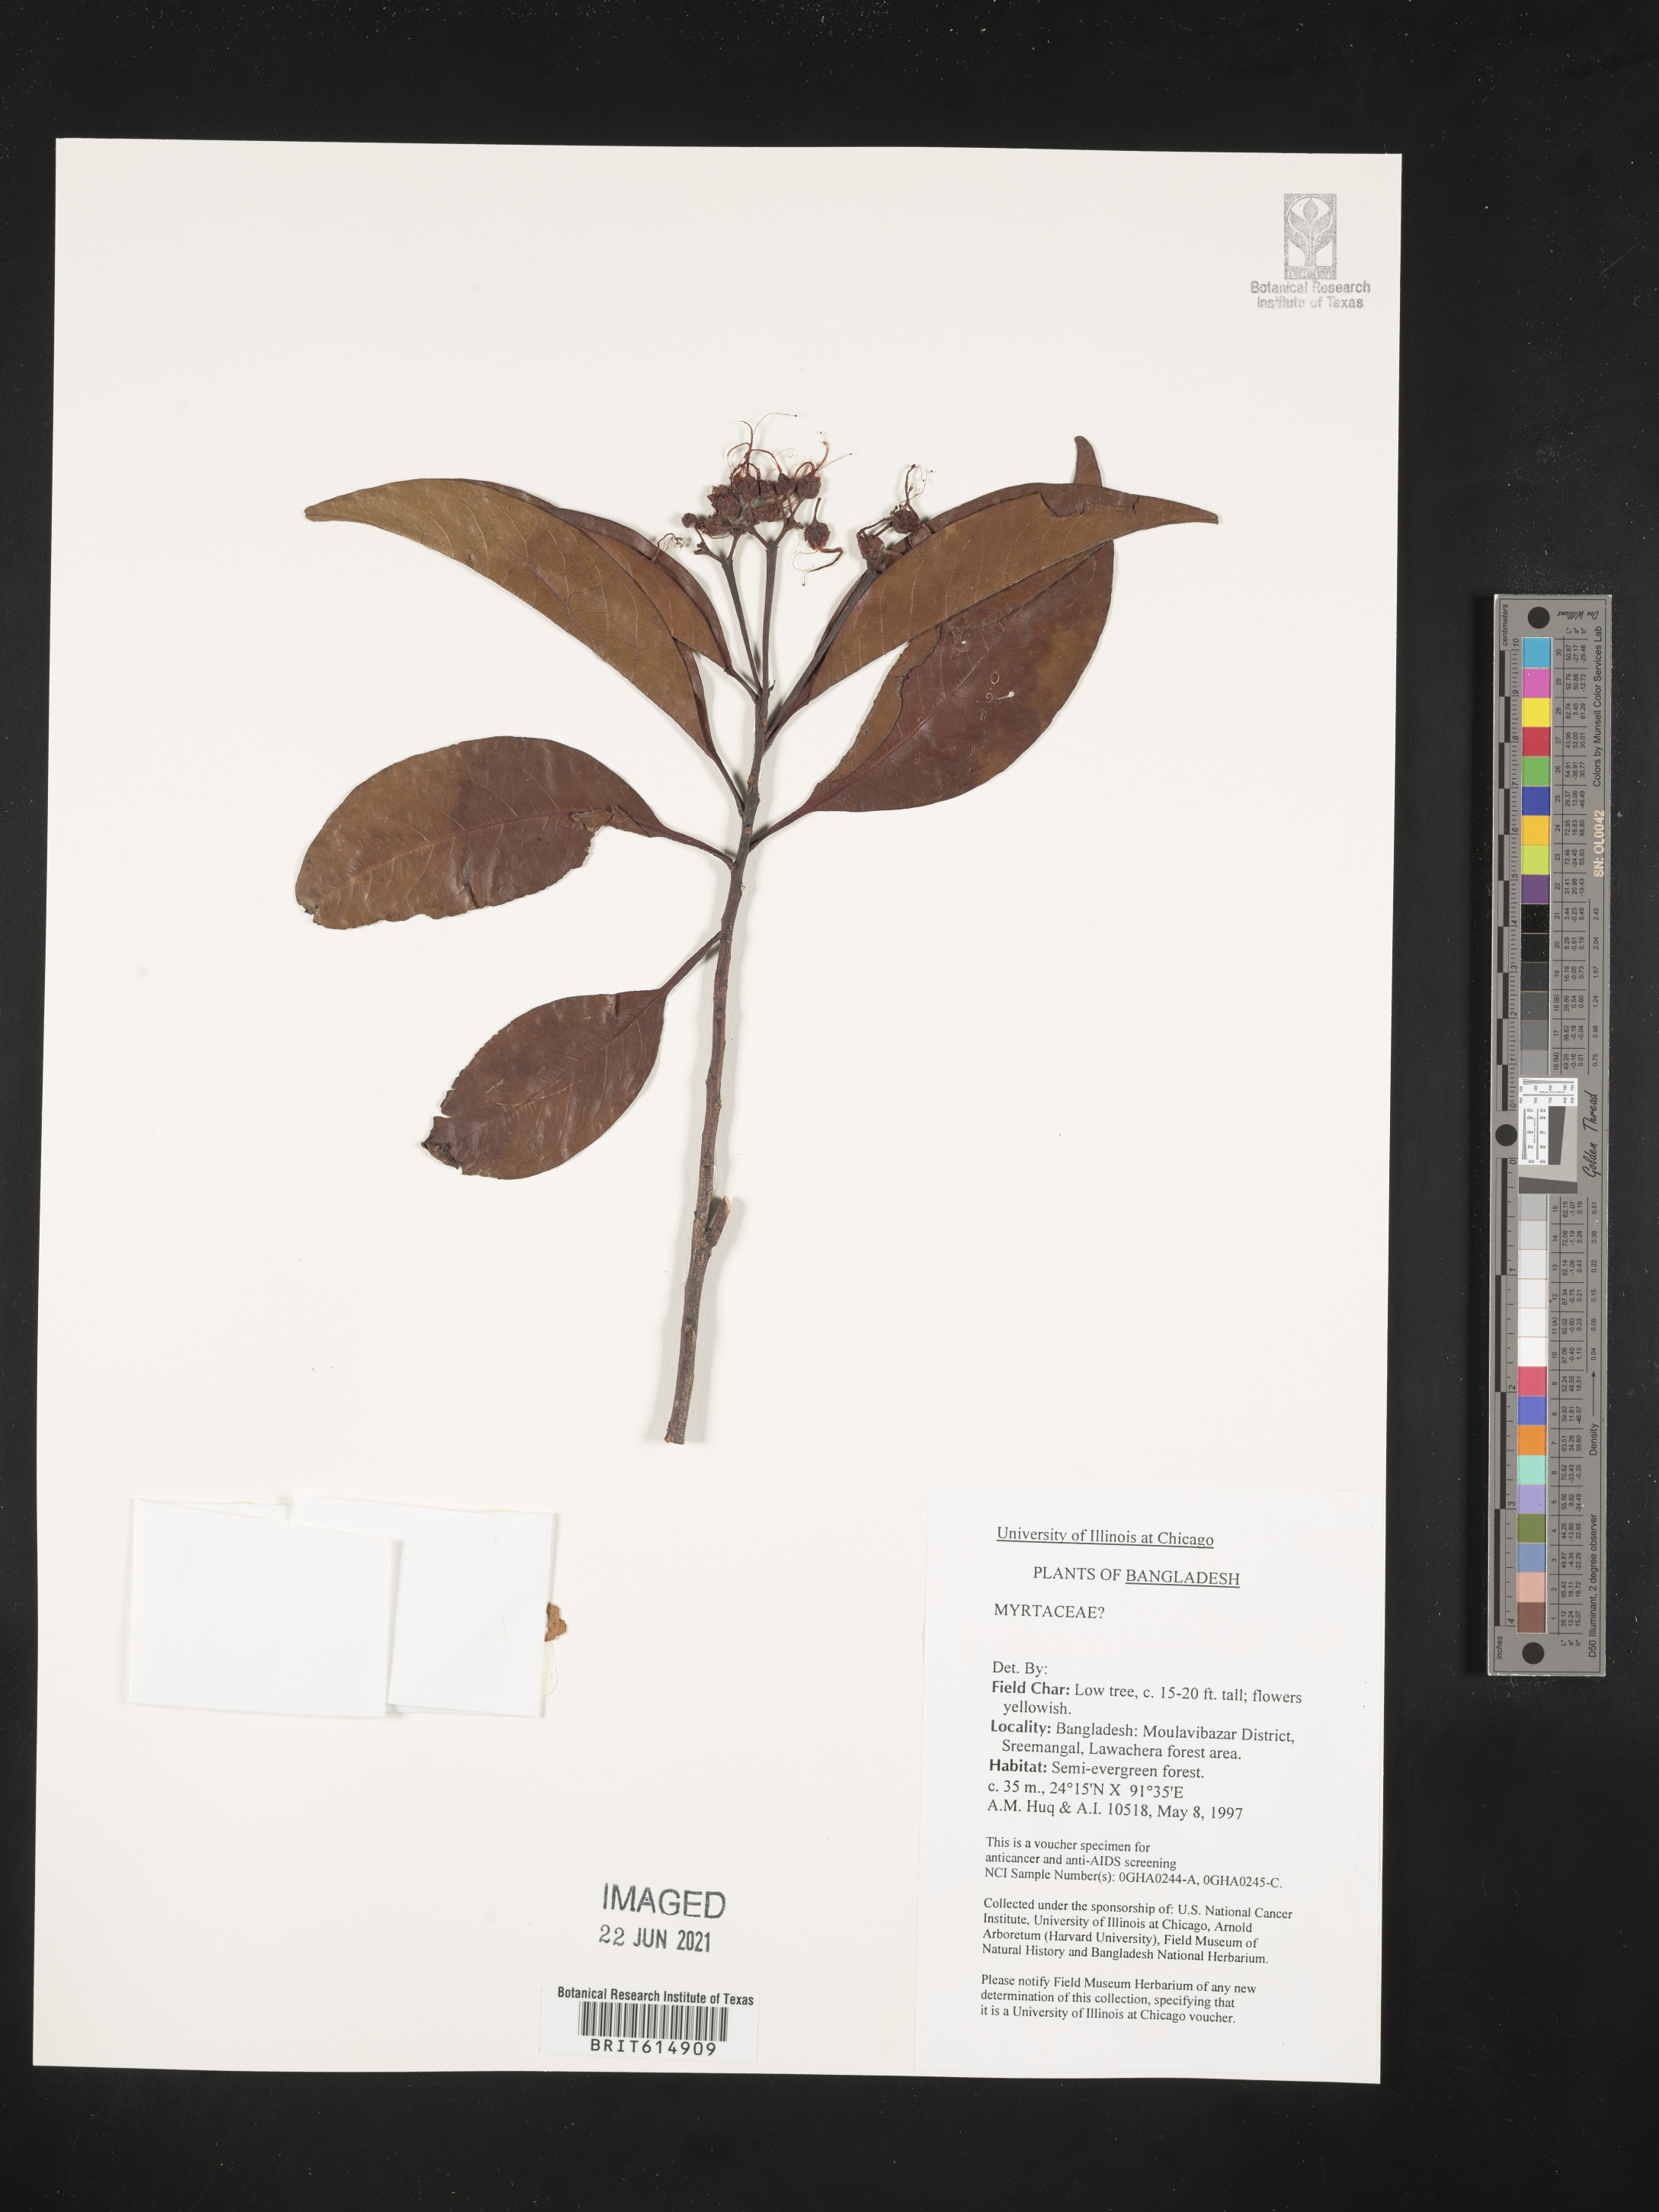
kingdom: Plantae
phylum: Tracheophyta
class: Magnoliopsida
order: Myrtales
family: Myrtaceae
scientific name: Myrtaceae
